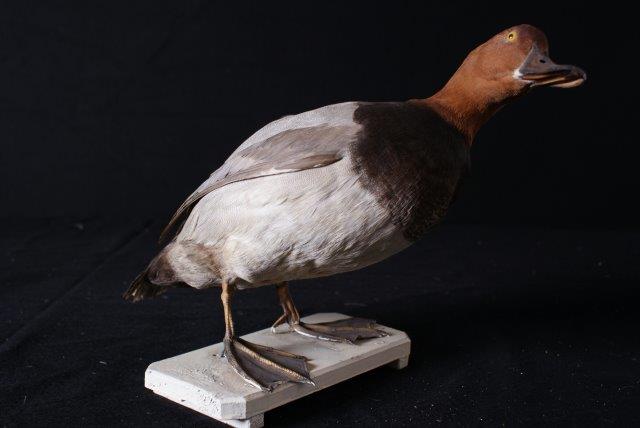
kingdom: Animalia
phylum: Chordata
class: Aves
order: Anseriformes
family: Anatidae
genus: Aythya
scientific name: Aythya ferina
